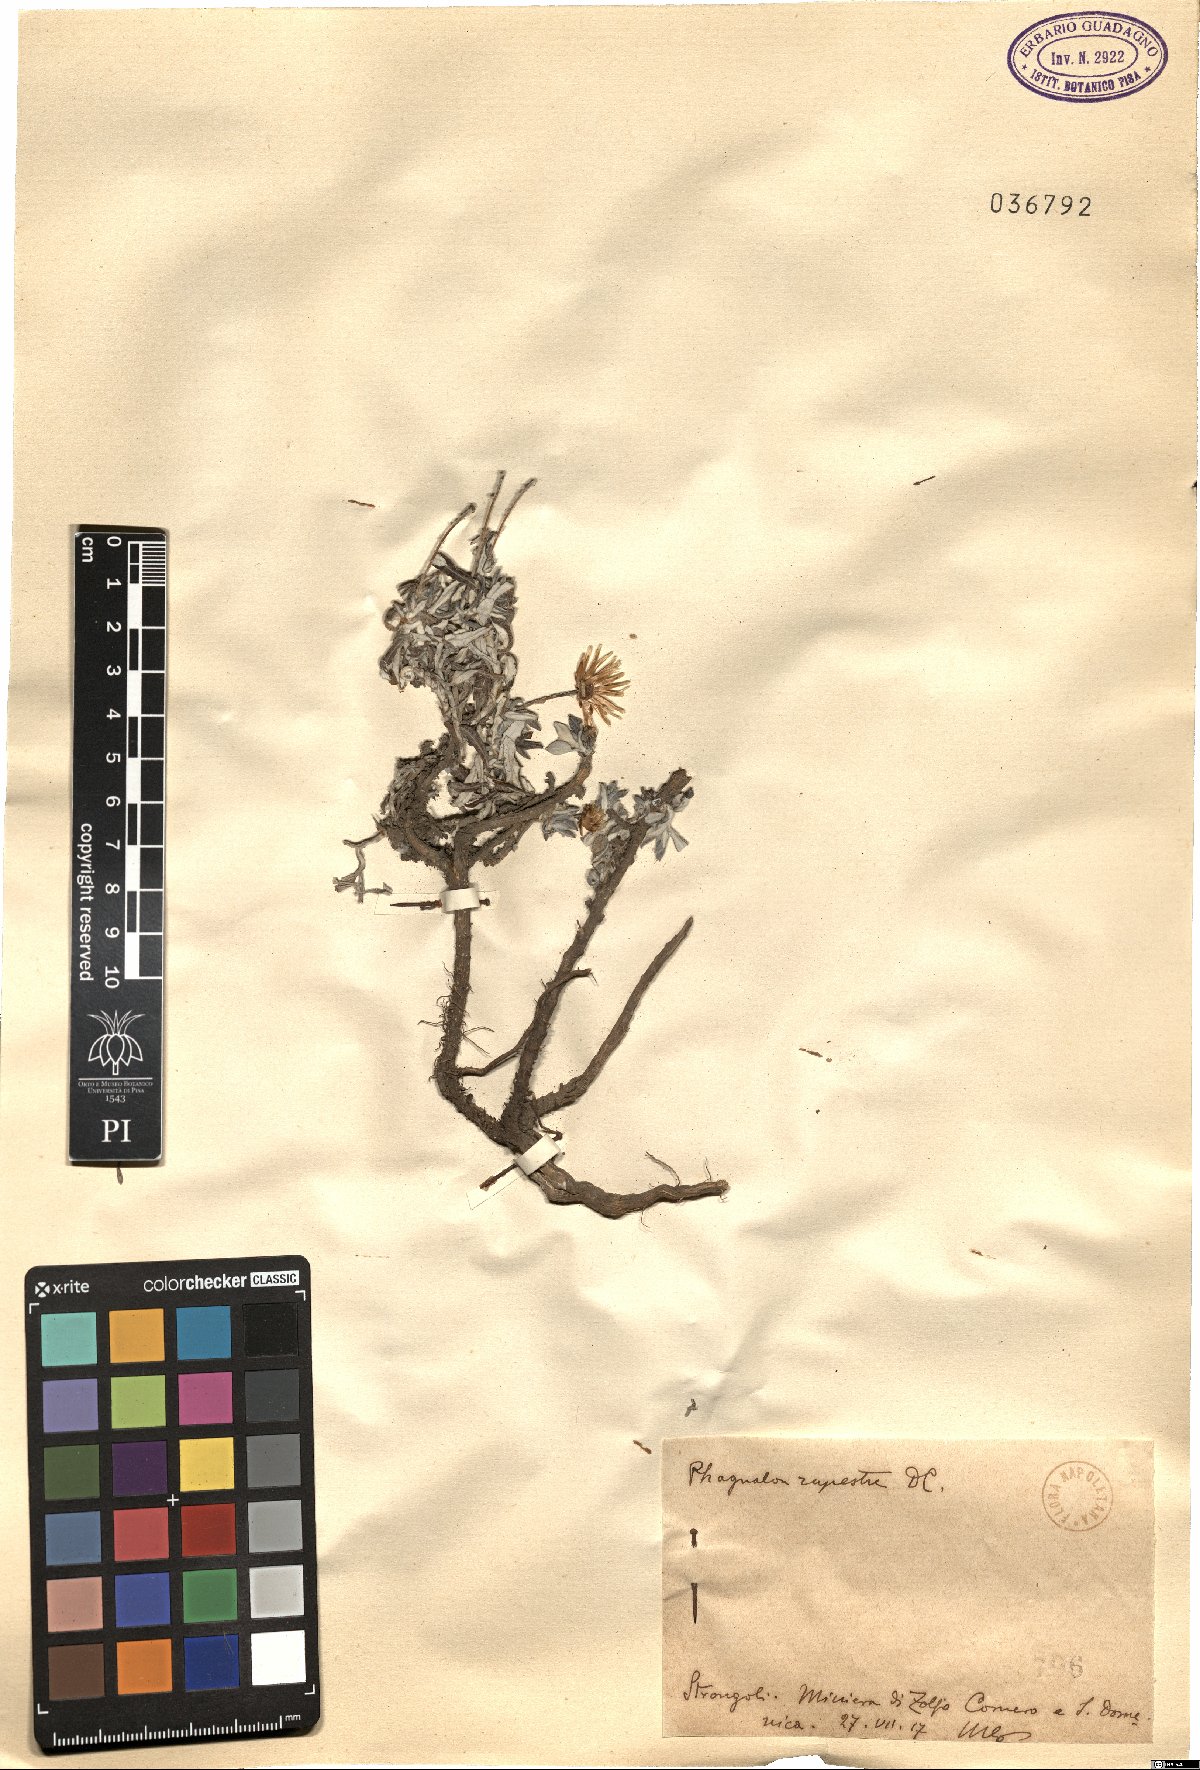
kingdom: Plantae
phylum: Tracheophyta
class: Magnoliopsida
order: Asterales
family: Asteraceae
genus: Phagnalon
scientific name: Phagnalon rupestre
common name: Rock phagnalon
